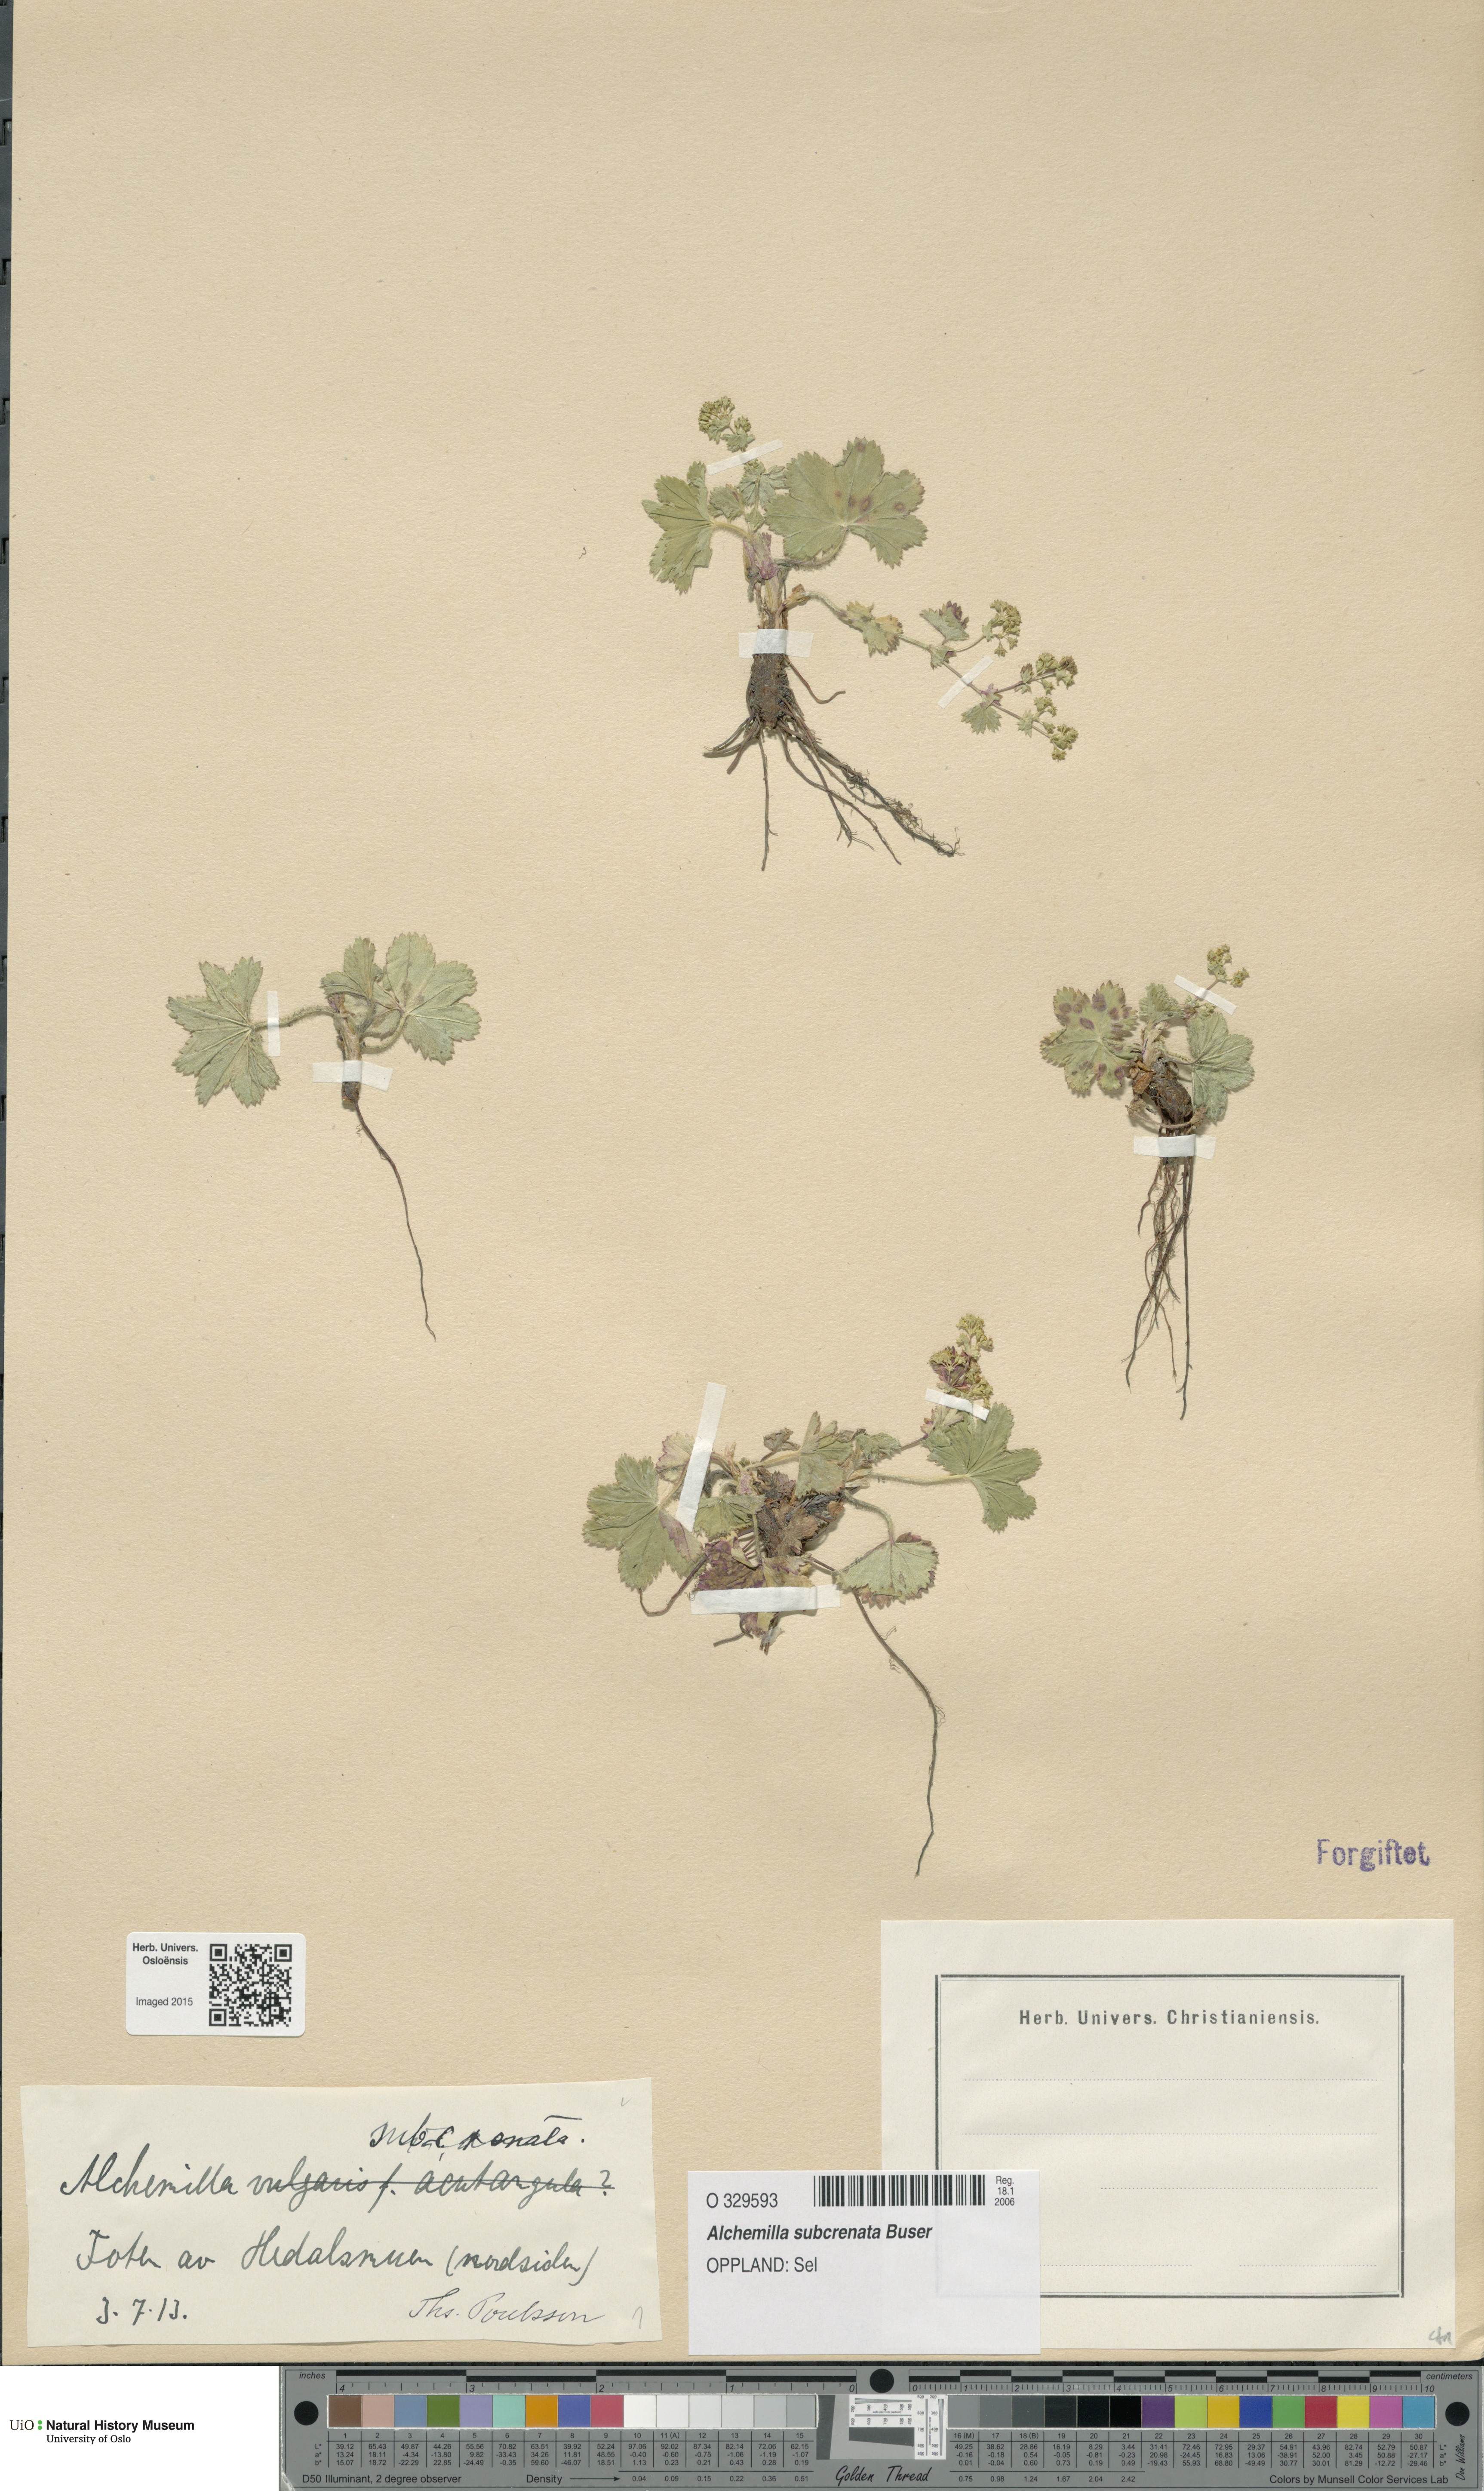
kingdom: Plantae
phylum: Tracheophyta
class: Magnoliopsida
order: Rosales
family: Rosaceae
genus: Alchemilla
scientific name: Alchemilla subcrenata
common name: Broadtooth lady's mantle
